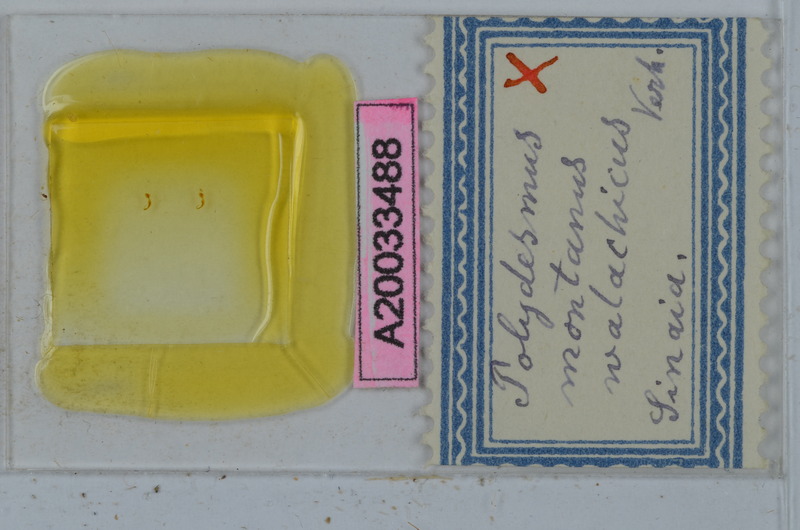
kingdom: Animalia
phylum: Arthropoda
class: Diplopoda
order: Polydesmida
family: Polydesmidae
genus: Polydesmus
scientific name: Polydesmus montanus
